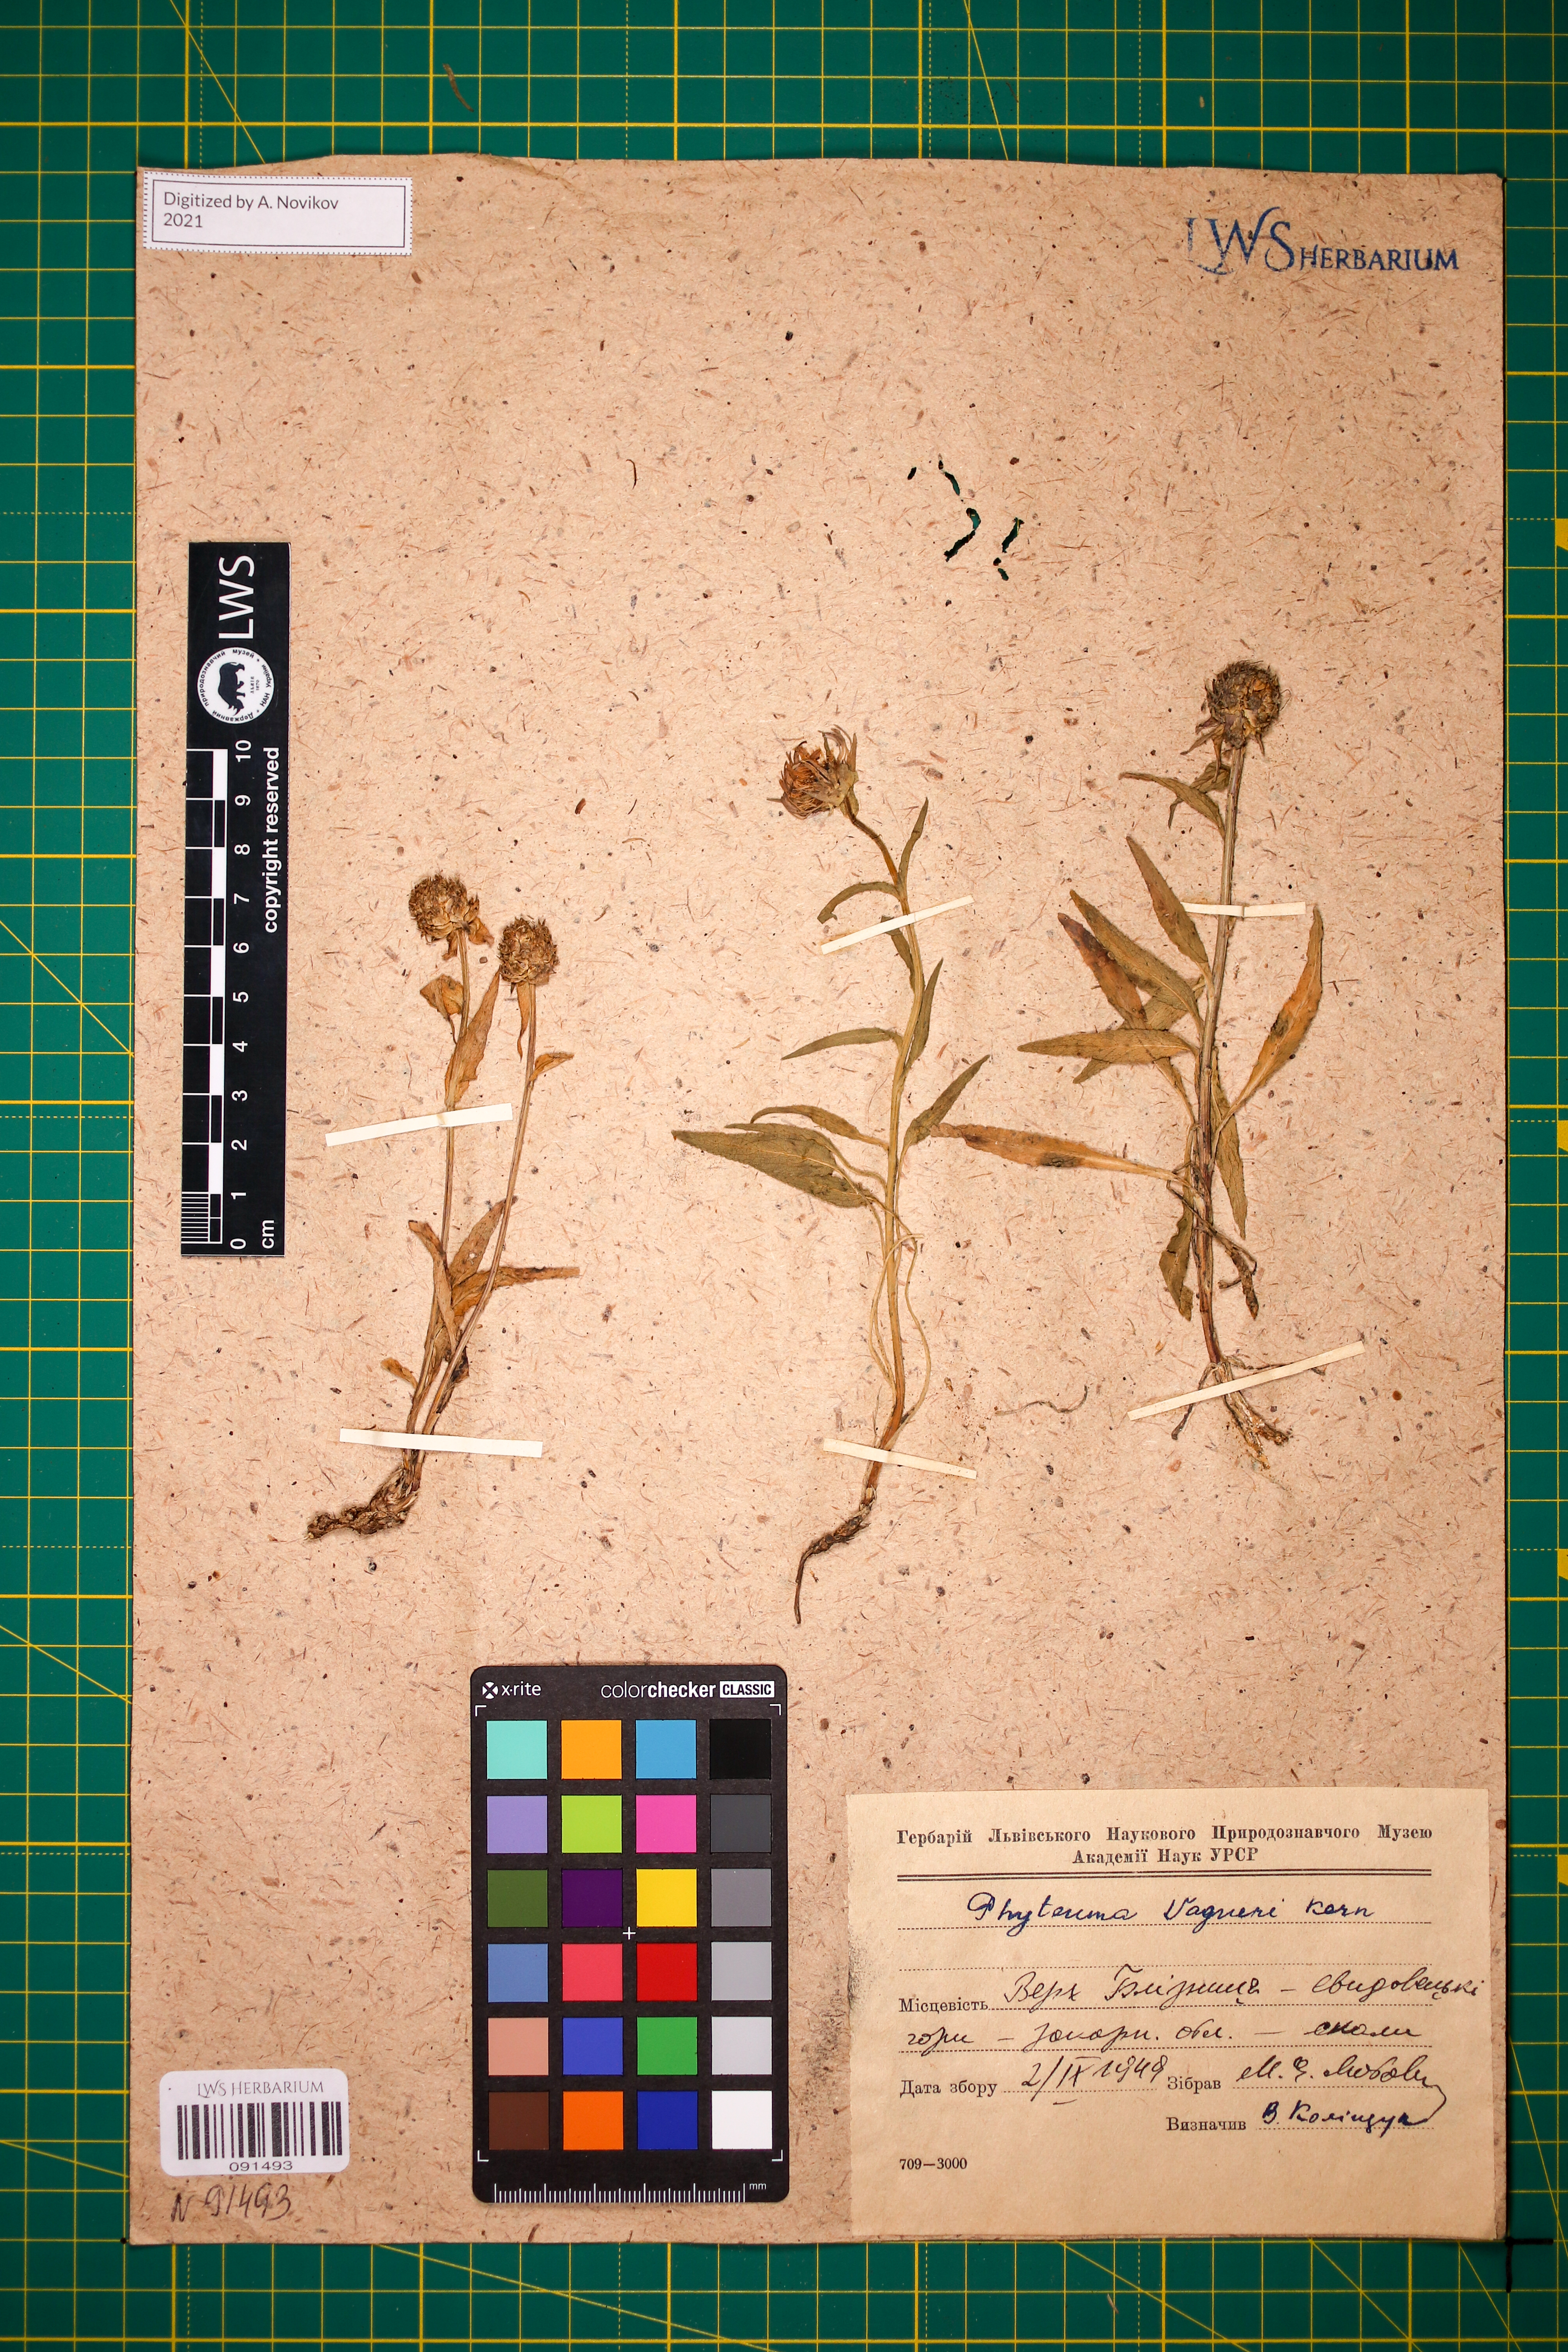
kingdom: Plantae
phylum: Tracheophyta
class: Magnoliopsida
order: Asterales
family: Campanulaceae
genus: Phyteuma
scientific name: Phyteuma vagneri
